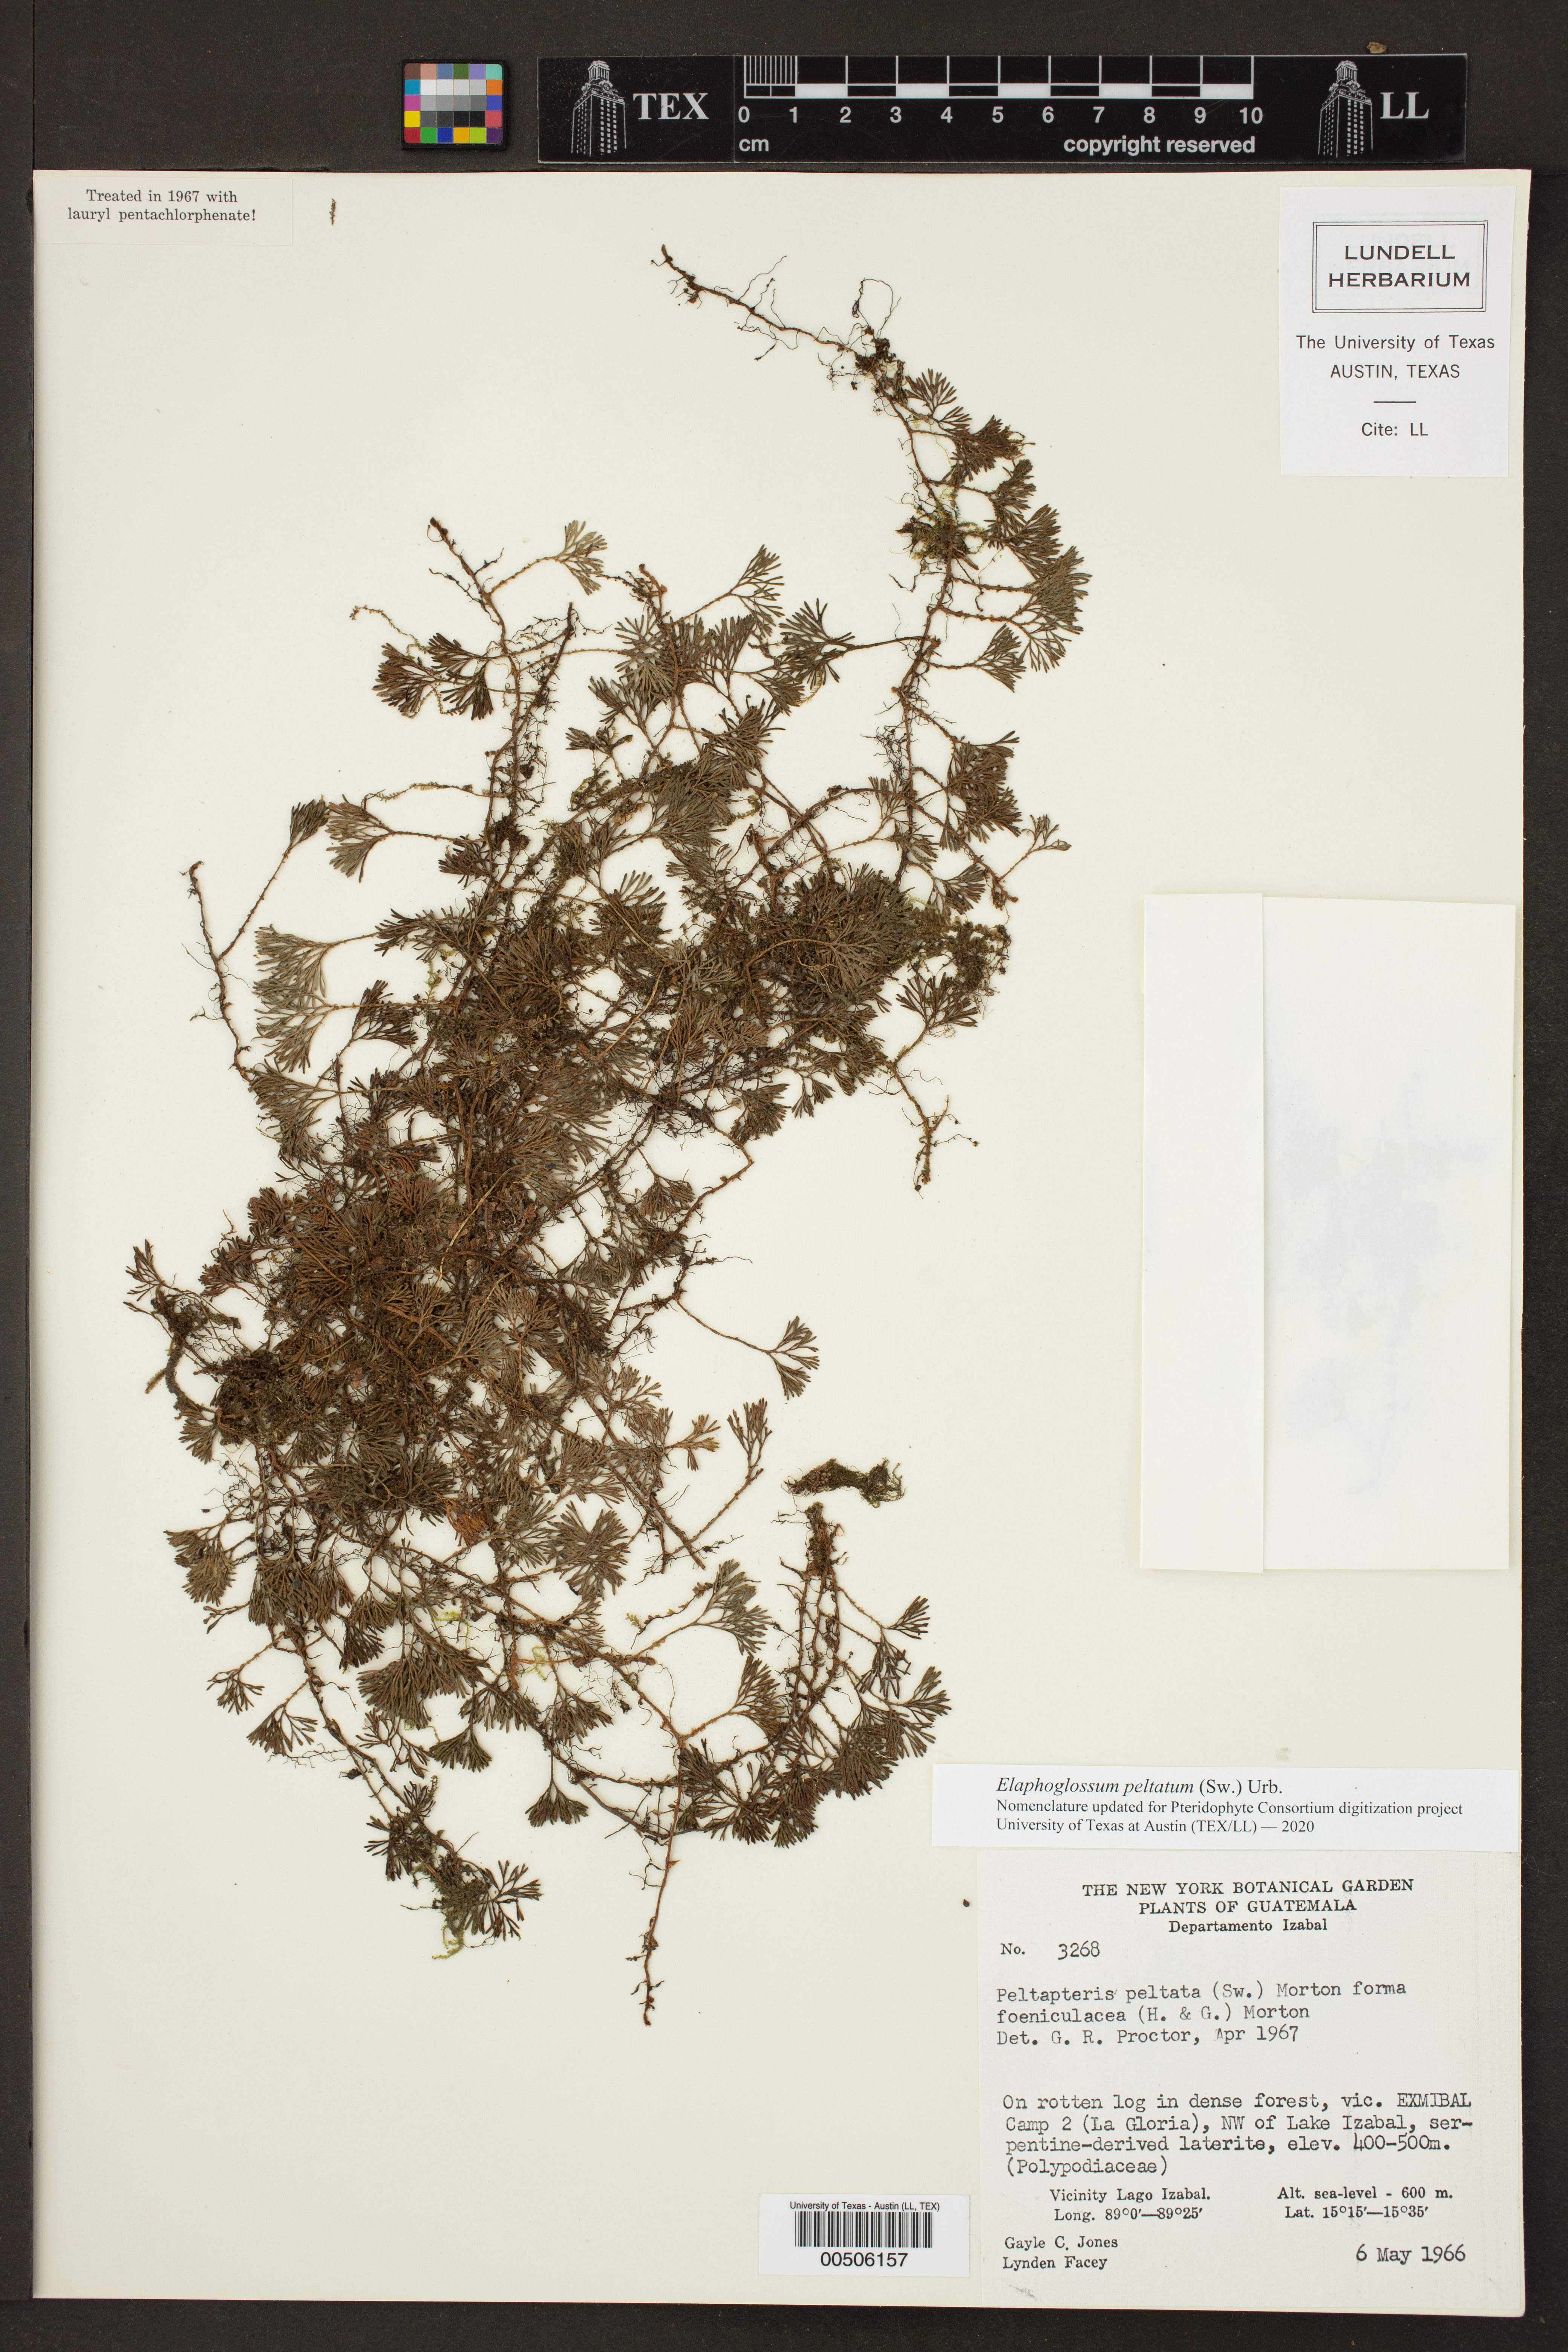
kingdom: Plantae
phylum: Tracheophyta
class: Polypodiopsida
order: Polypodiales
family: Dryopteridaceae
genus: Elaphoglossum
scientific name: Elaphoglossum peltatum
